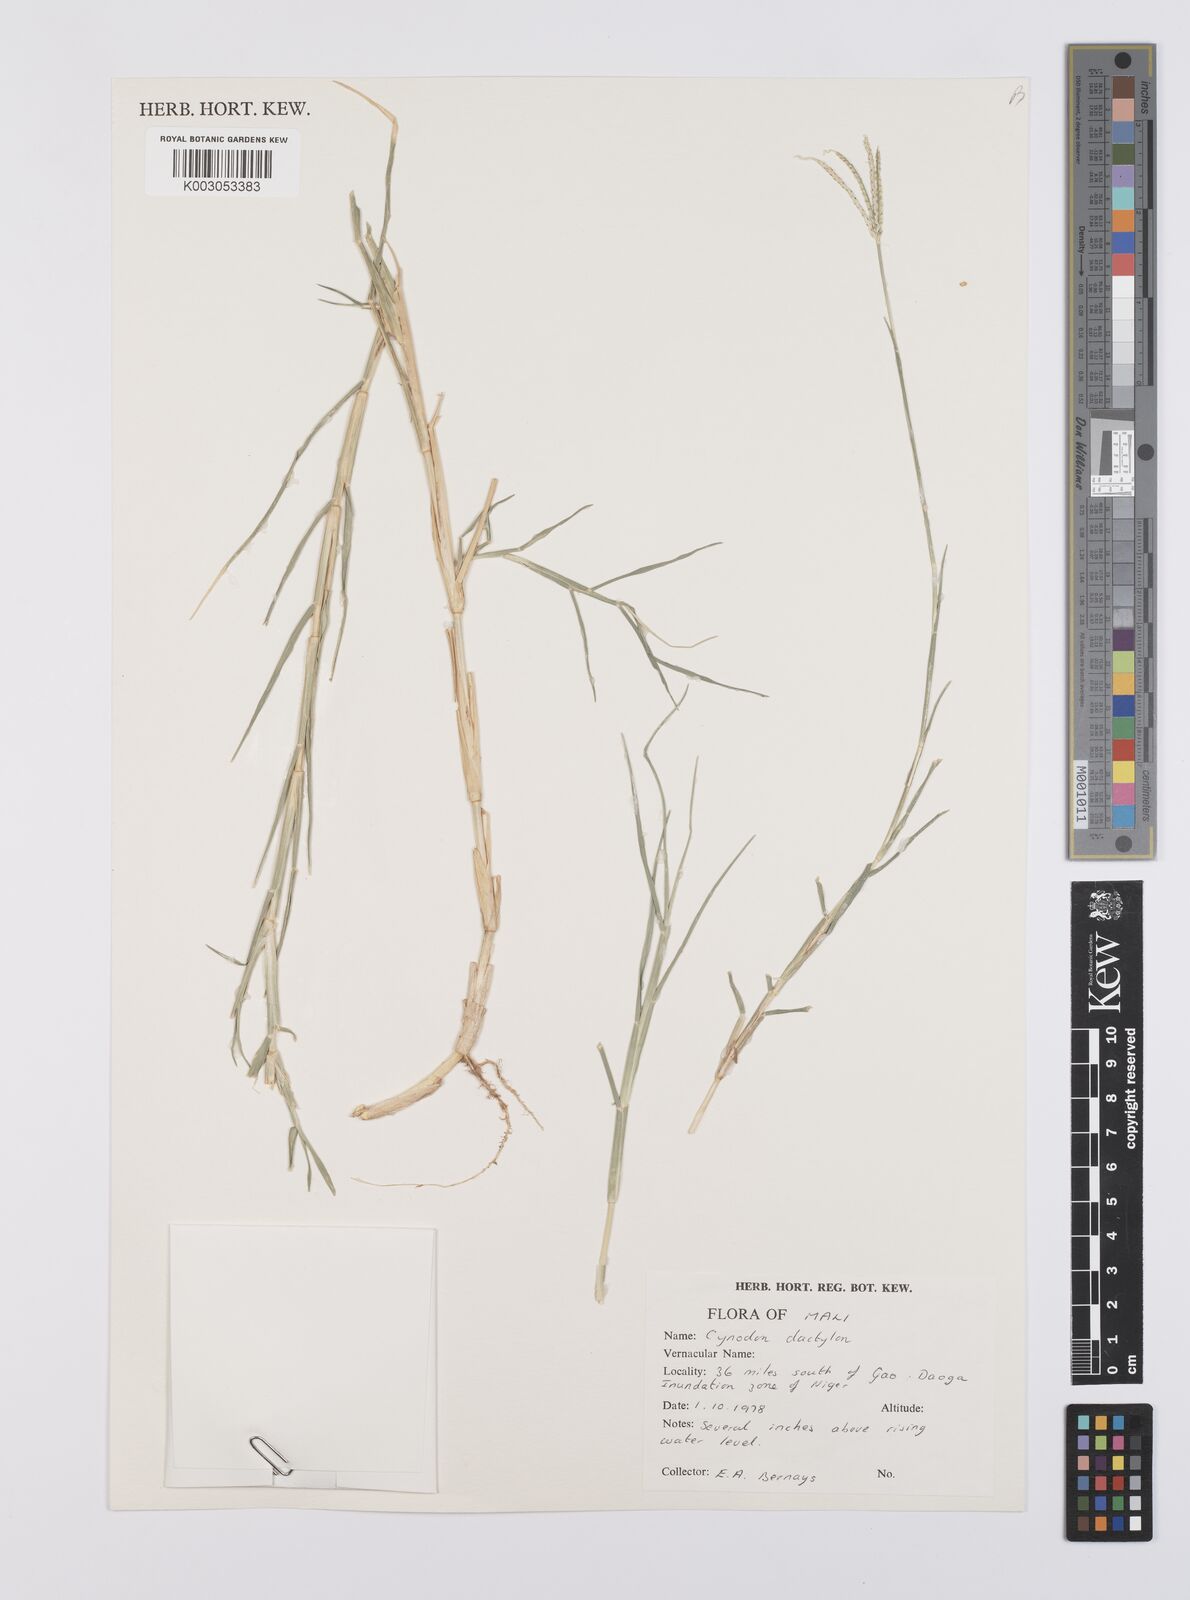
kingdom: Plantae
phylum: Tracheophyta
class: Liliopsida
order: Poales
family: Poaceae
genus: Cynodon
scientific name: Cynodon dactylon
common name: Bermuda grass
